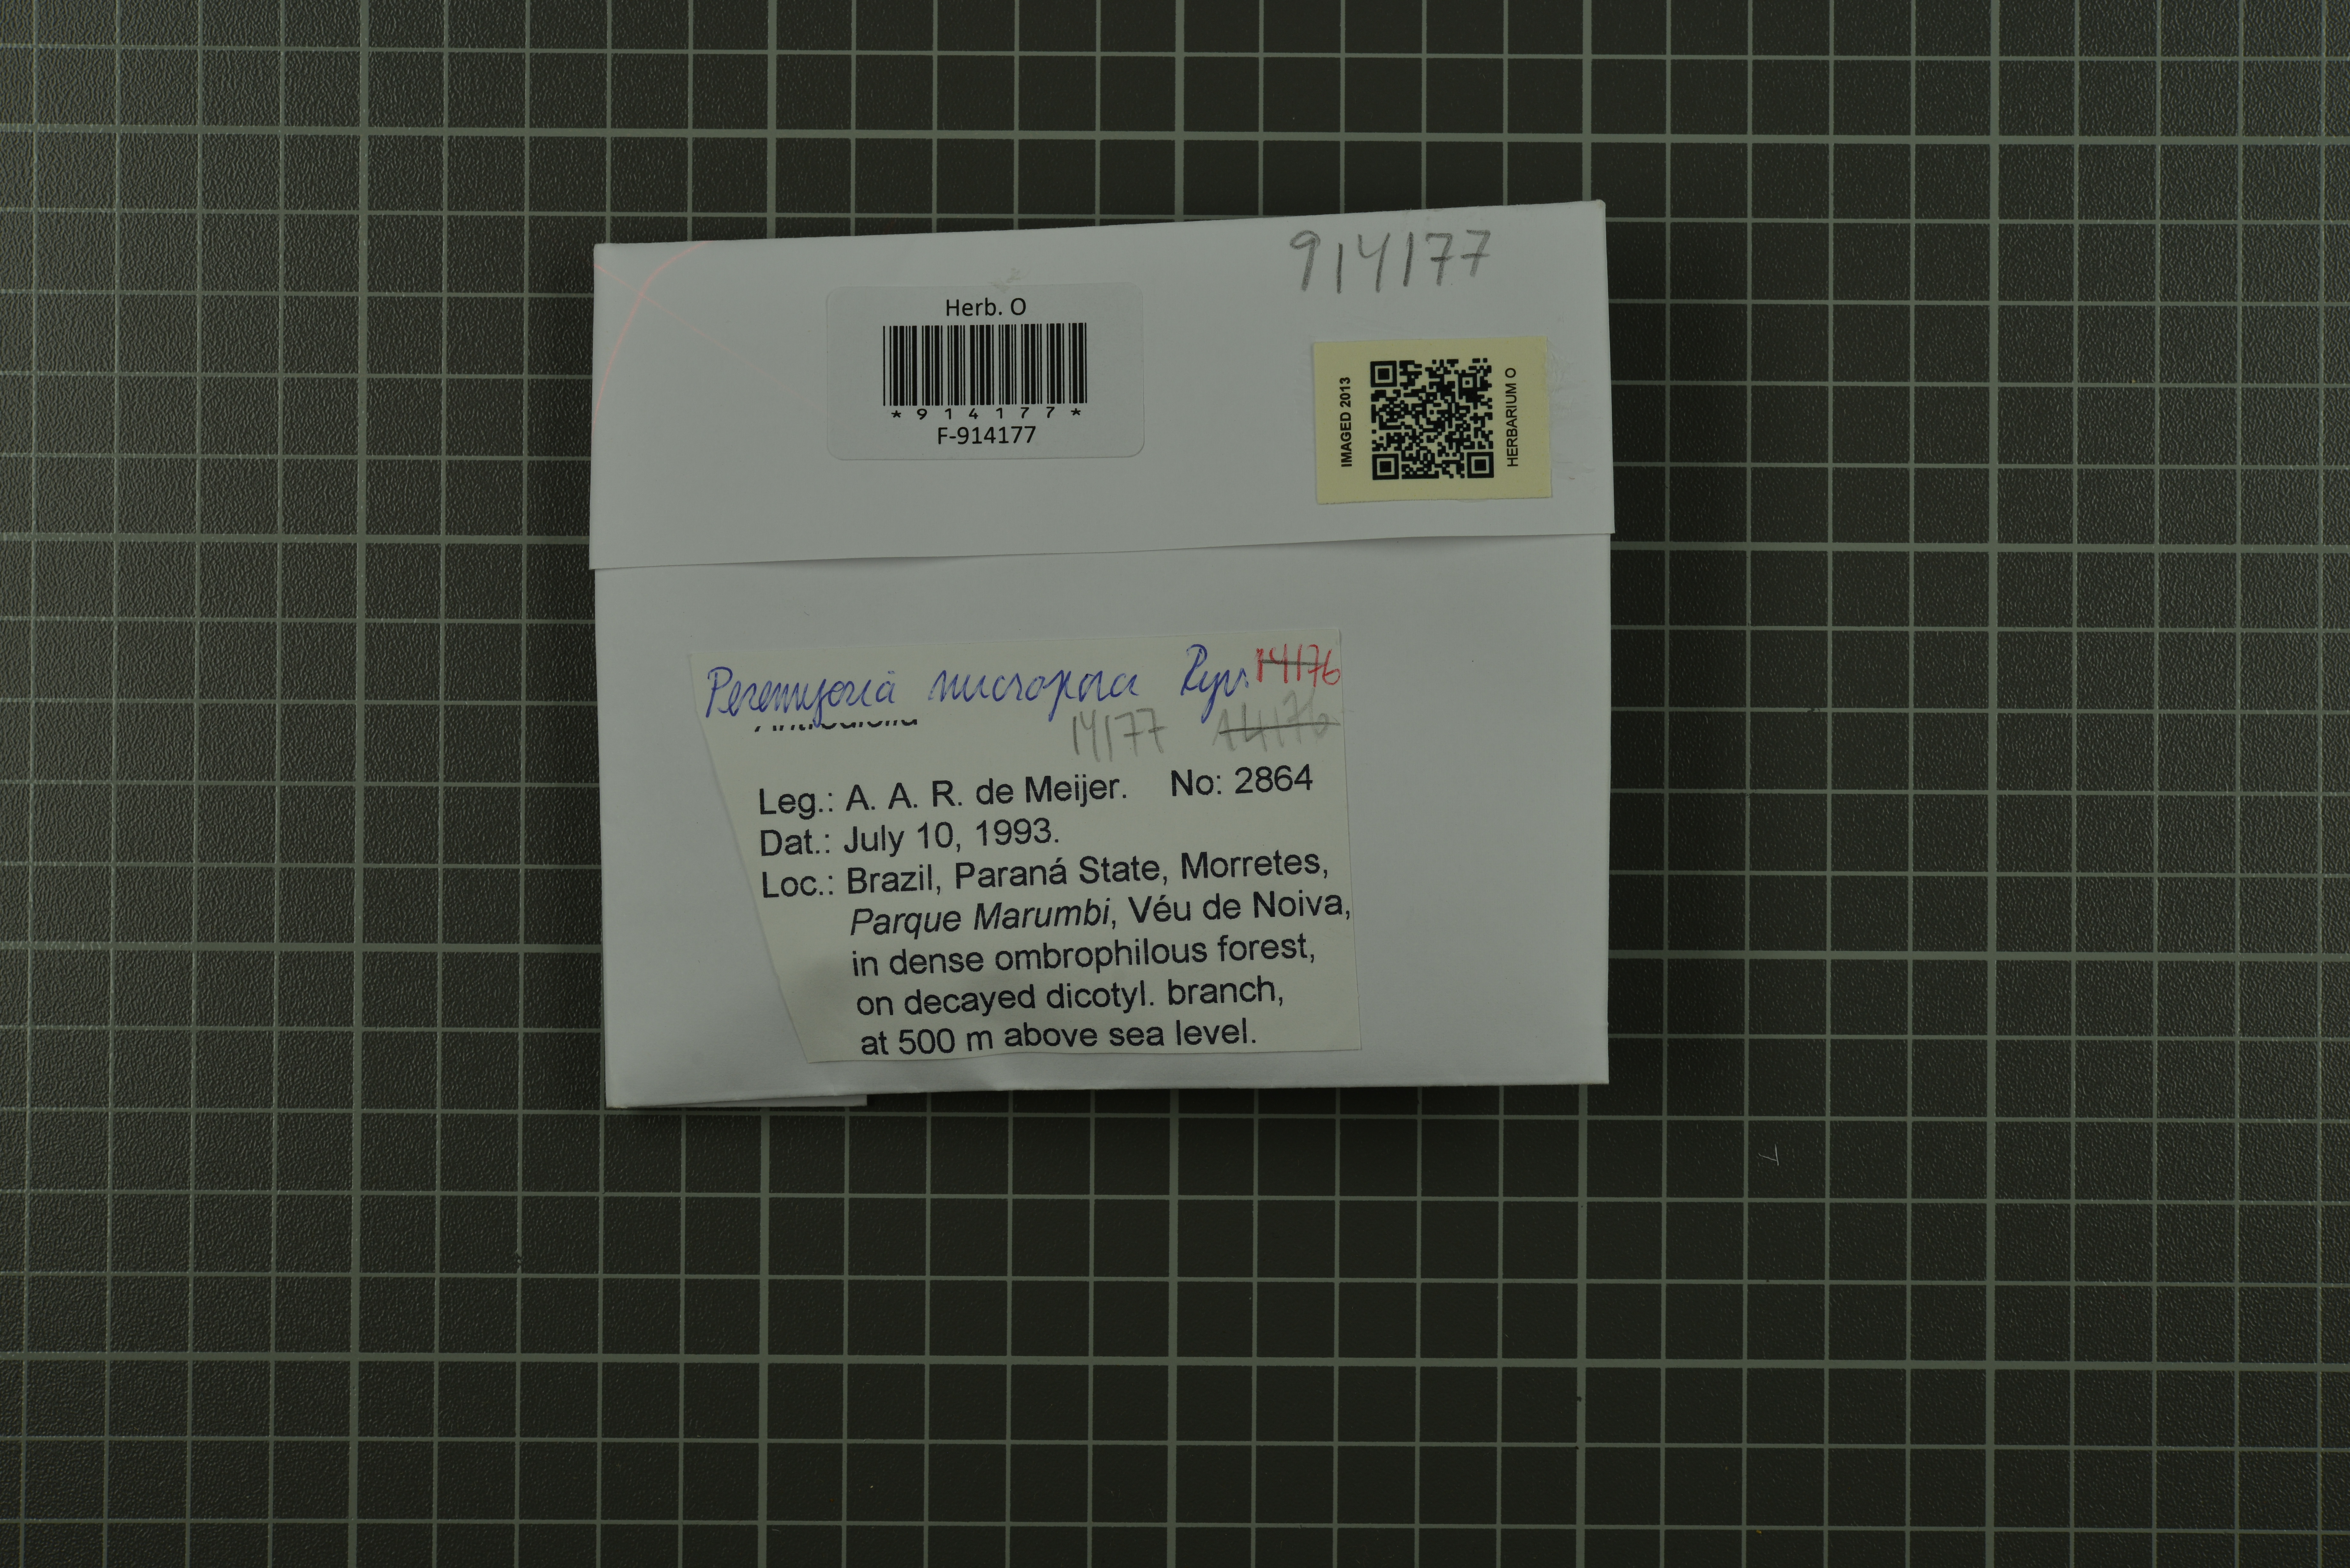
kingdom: Fungi
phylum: Basidiomycota
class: Agaricomycetes
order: Polyporales
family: Polyporaceae
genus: Perenniporiella
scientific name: Perenniporiella micropora
